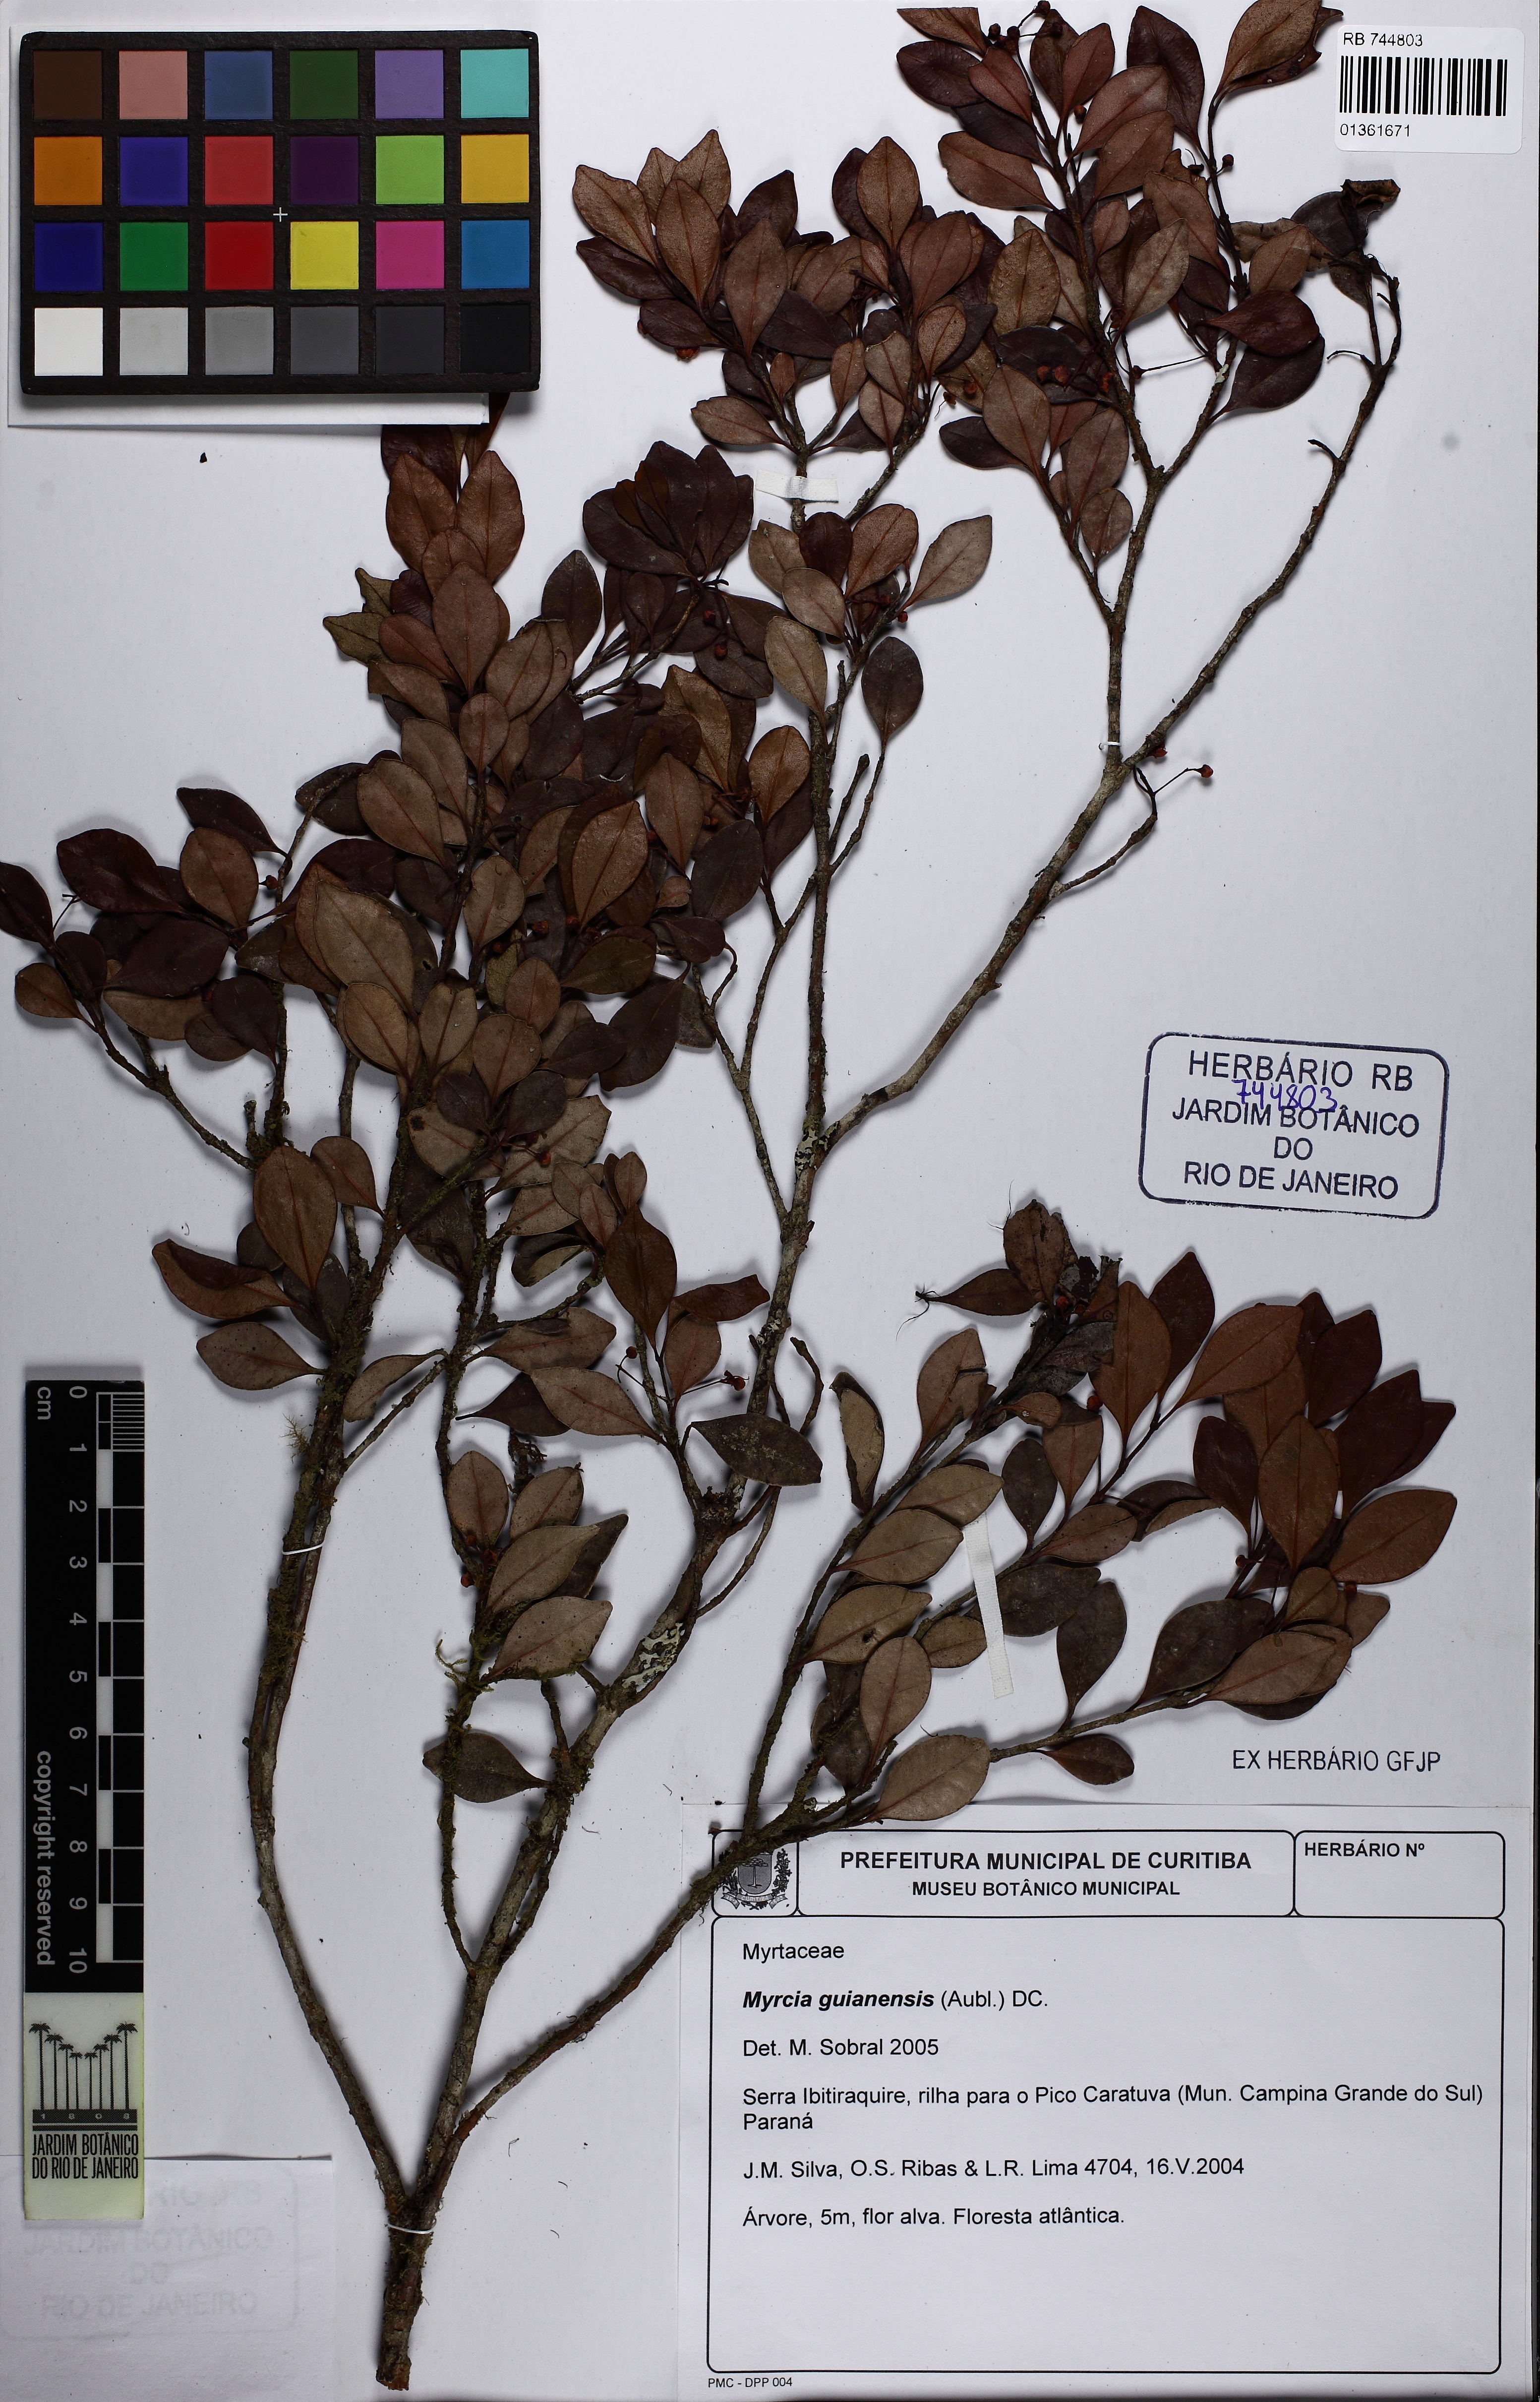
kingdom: Plantae
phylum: Tracheophyta
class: Magnoliopsida
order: Myrtales
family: Myrtaceae
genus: Myrcia
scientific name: Myrcia guianensis
